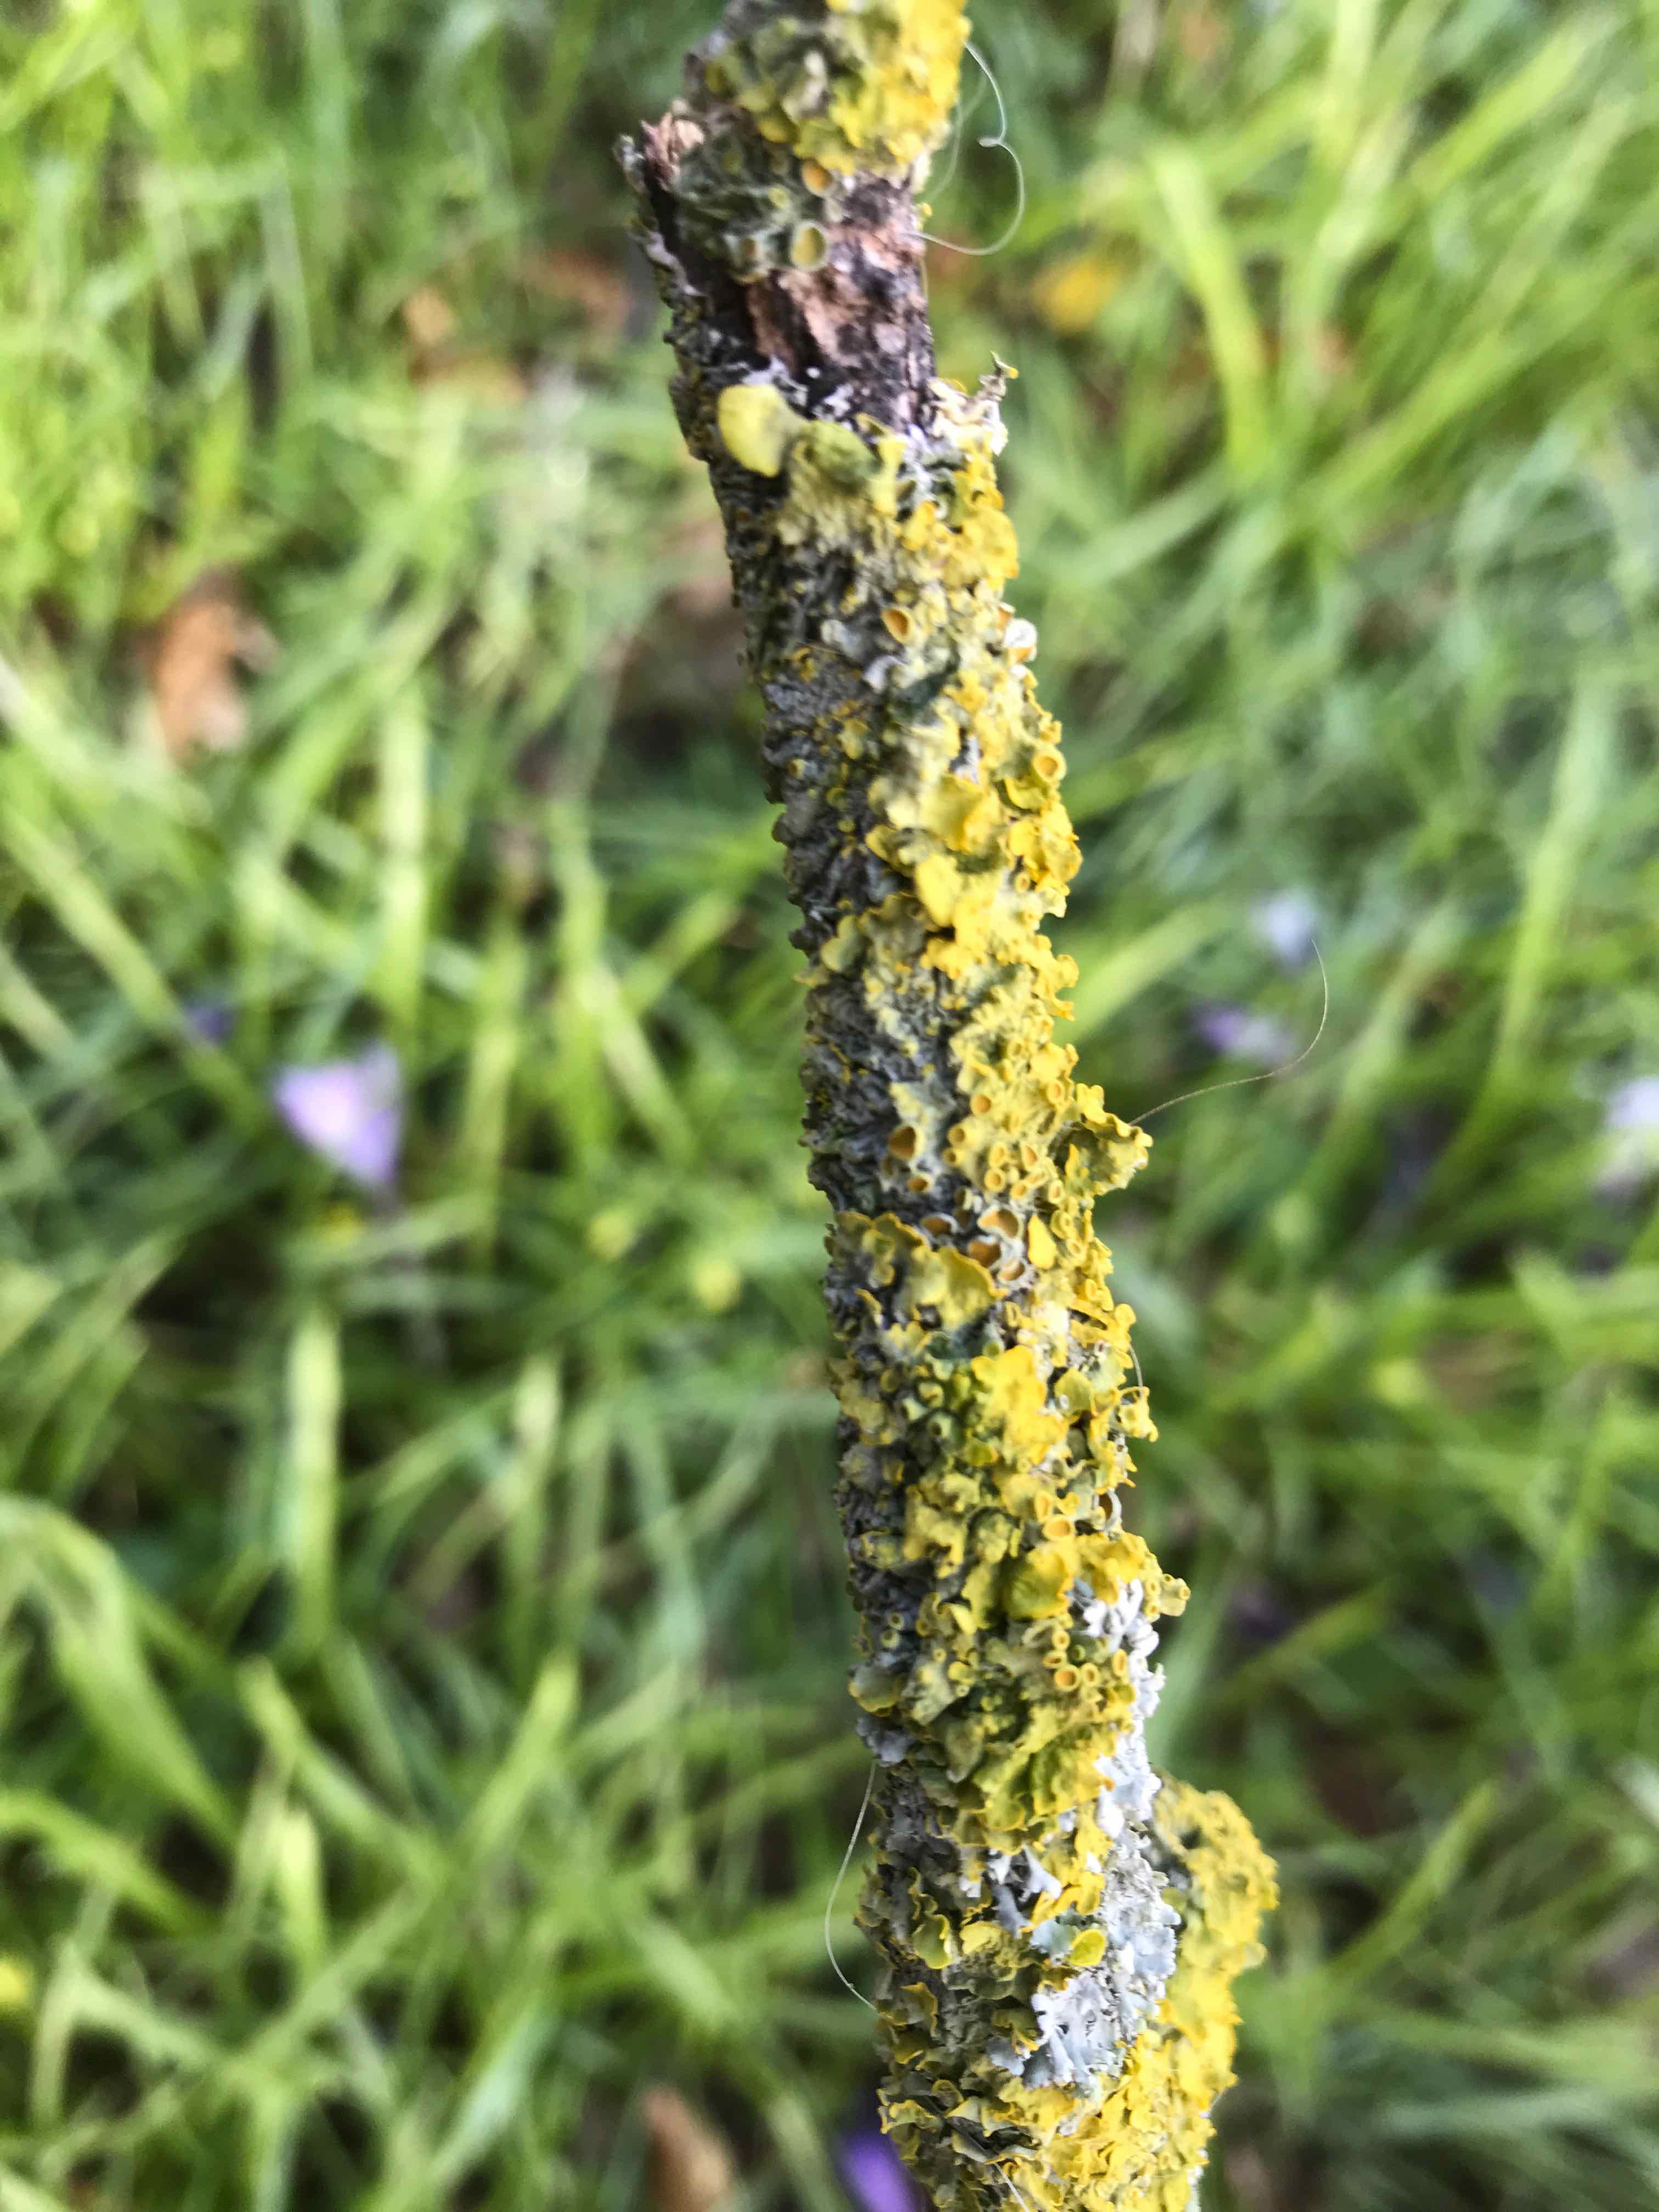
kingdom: Fungi
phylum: Ascomycota
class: Lecanoromycetes
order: Teloschistales
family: Teloschistaceae
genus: Xanthoria
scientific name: Xanthoria parietina
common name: almindelig væggelav
